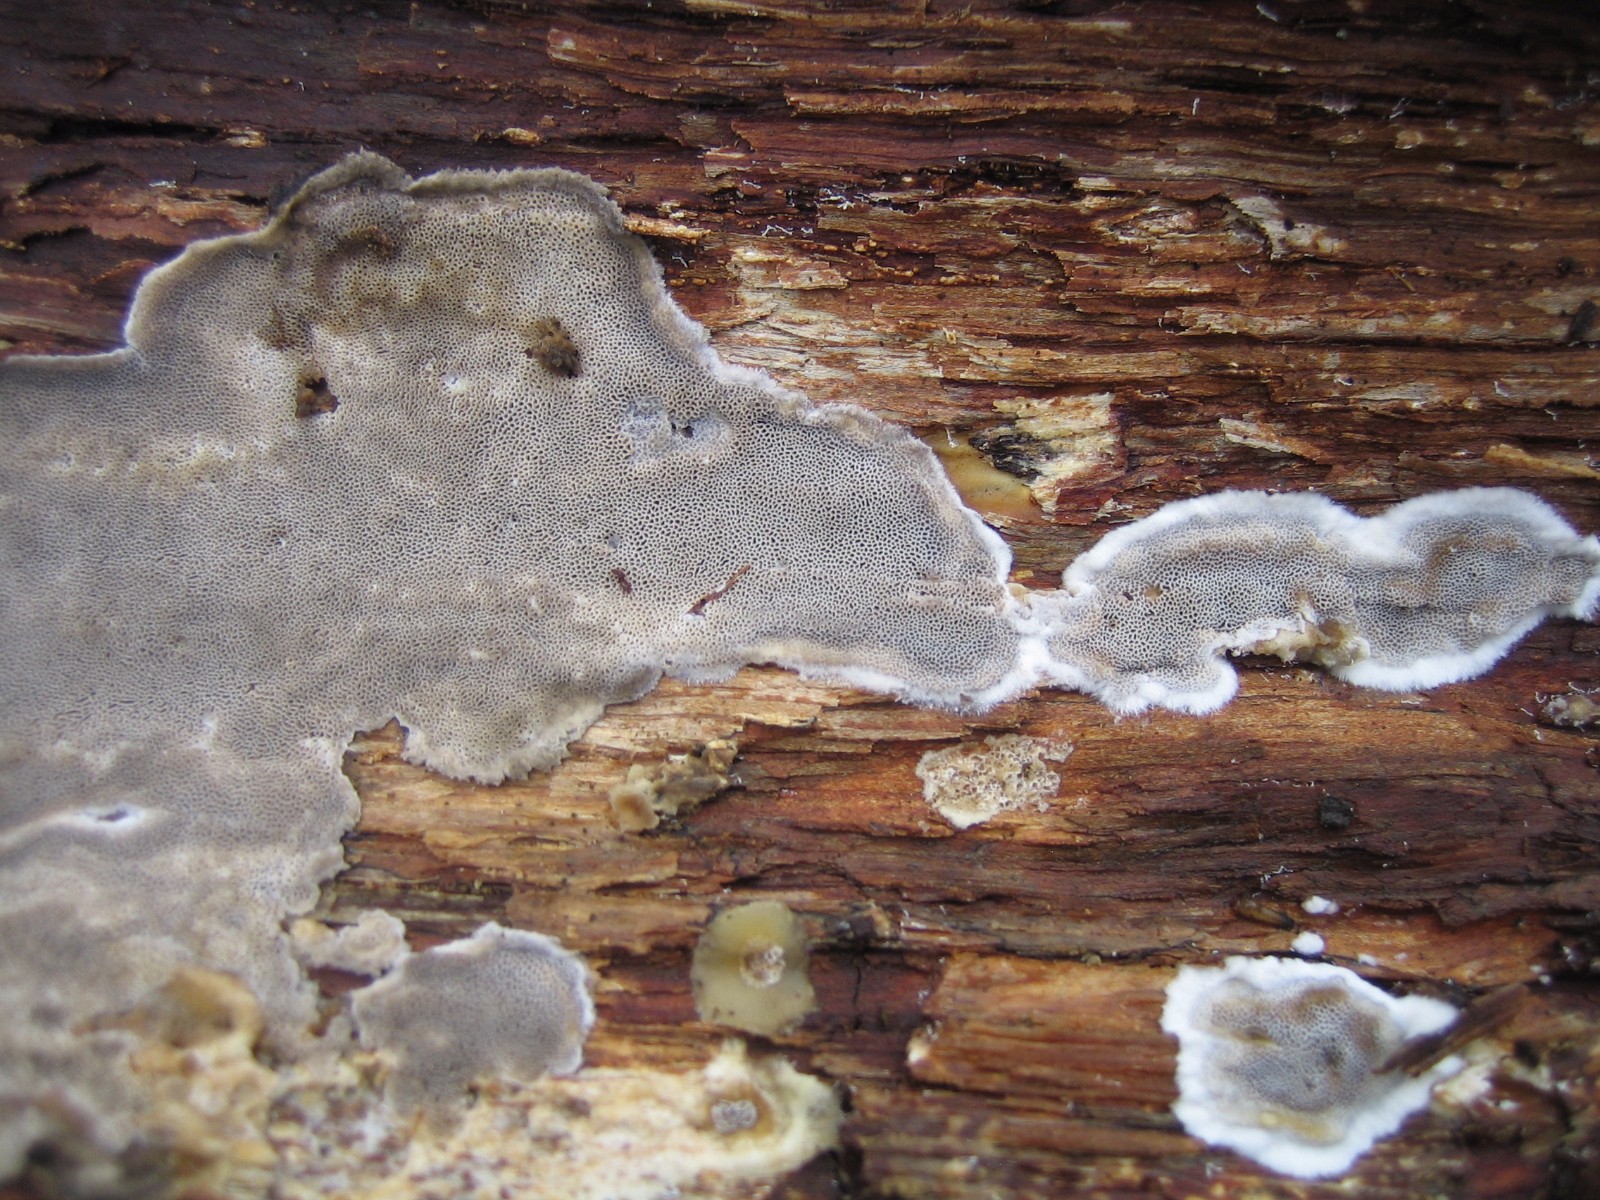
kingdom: Fungi
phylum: Basidiomycota
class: Agaricomycetes
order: Polyporales
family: Phanerochaetaceae
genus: Bjerkandera
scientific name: Bjerkandera adusta
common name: sveden sodporesvamp
